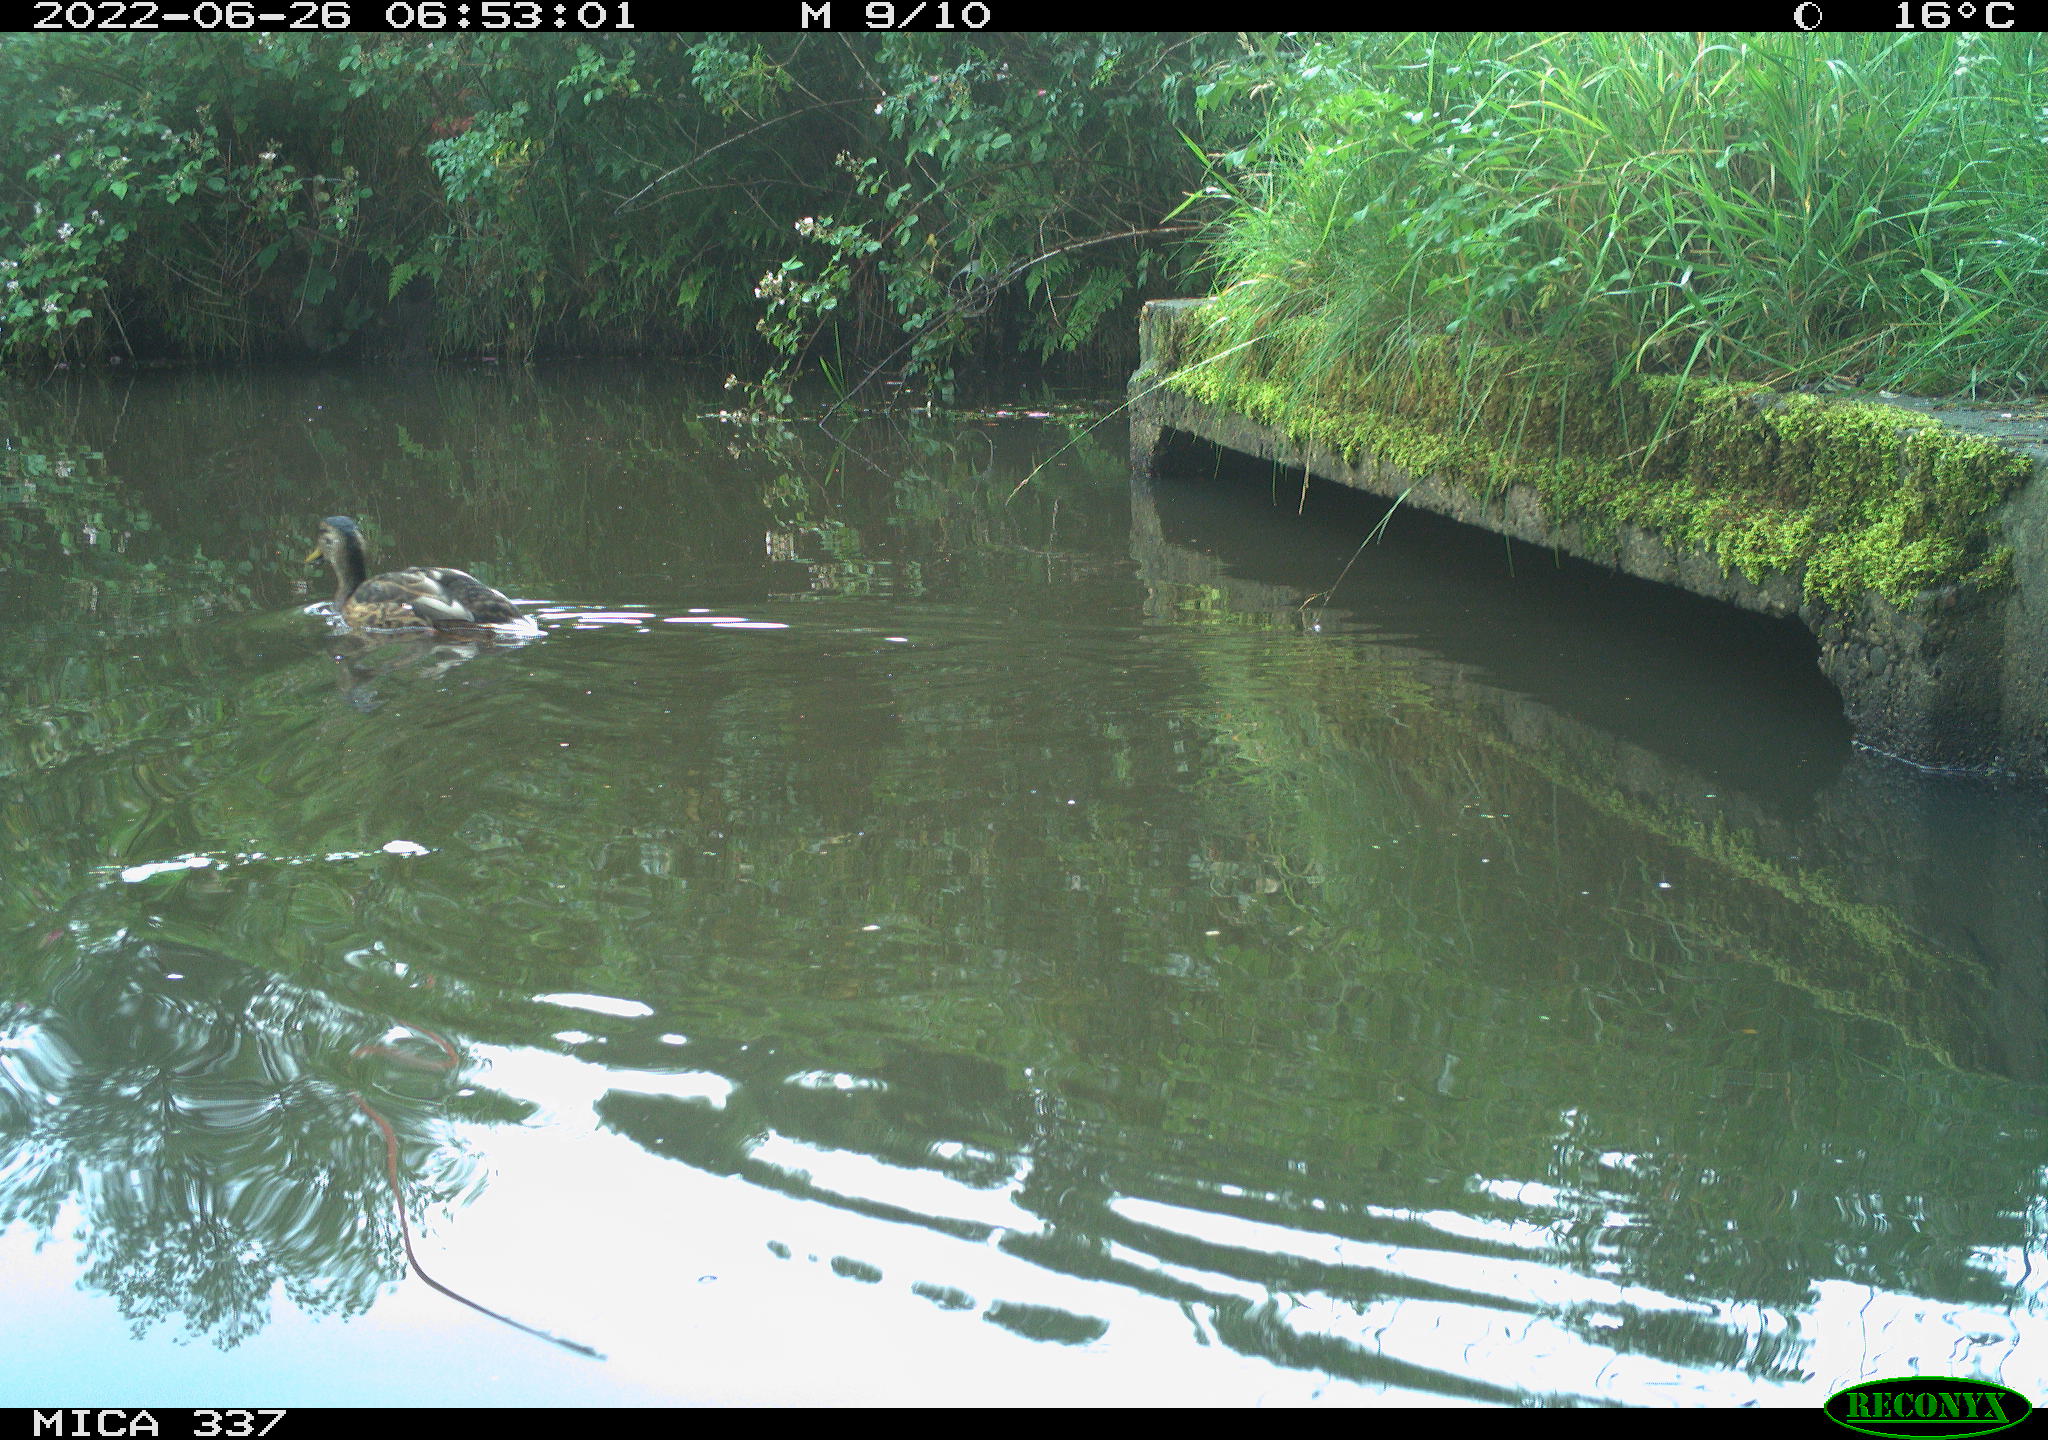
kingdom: Animalia
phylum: Chordata
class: Aves
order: Anseriformes
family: Anatidae
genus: Anas
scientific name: Anas platyrhynchos
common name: Mallard
